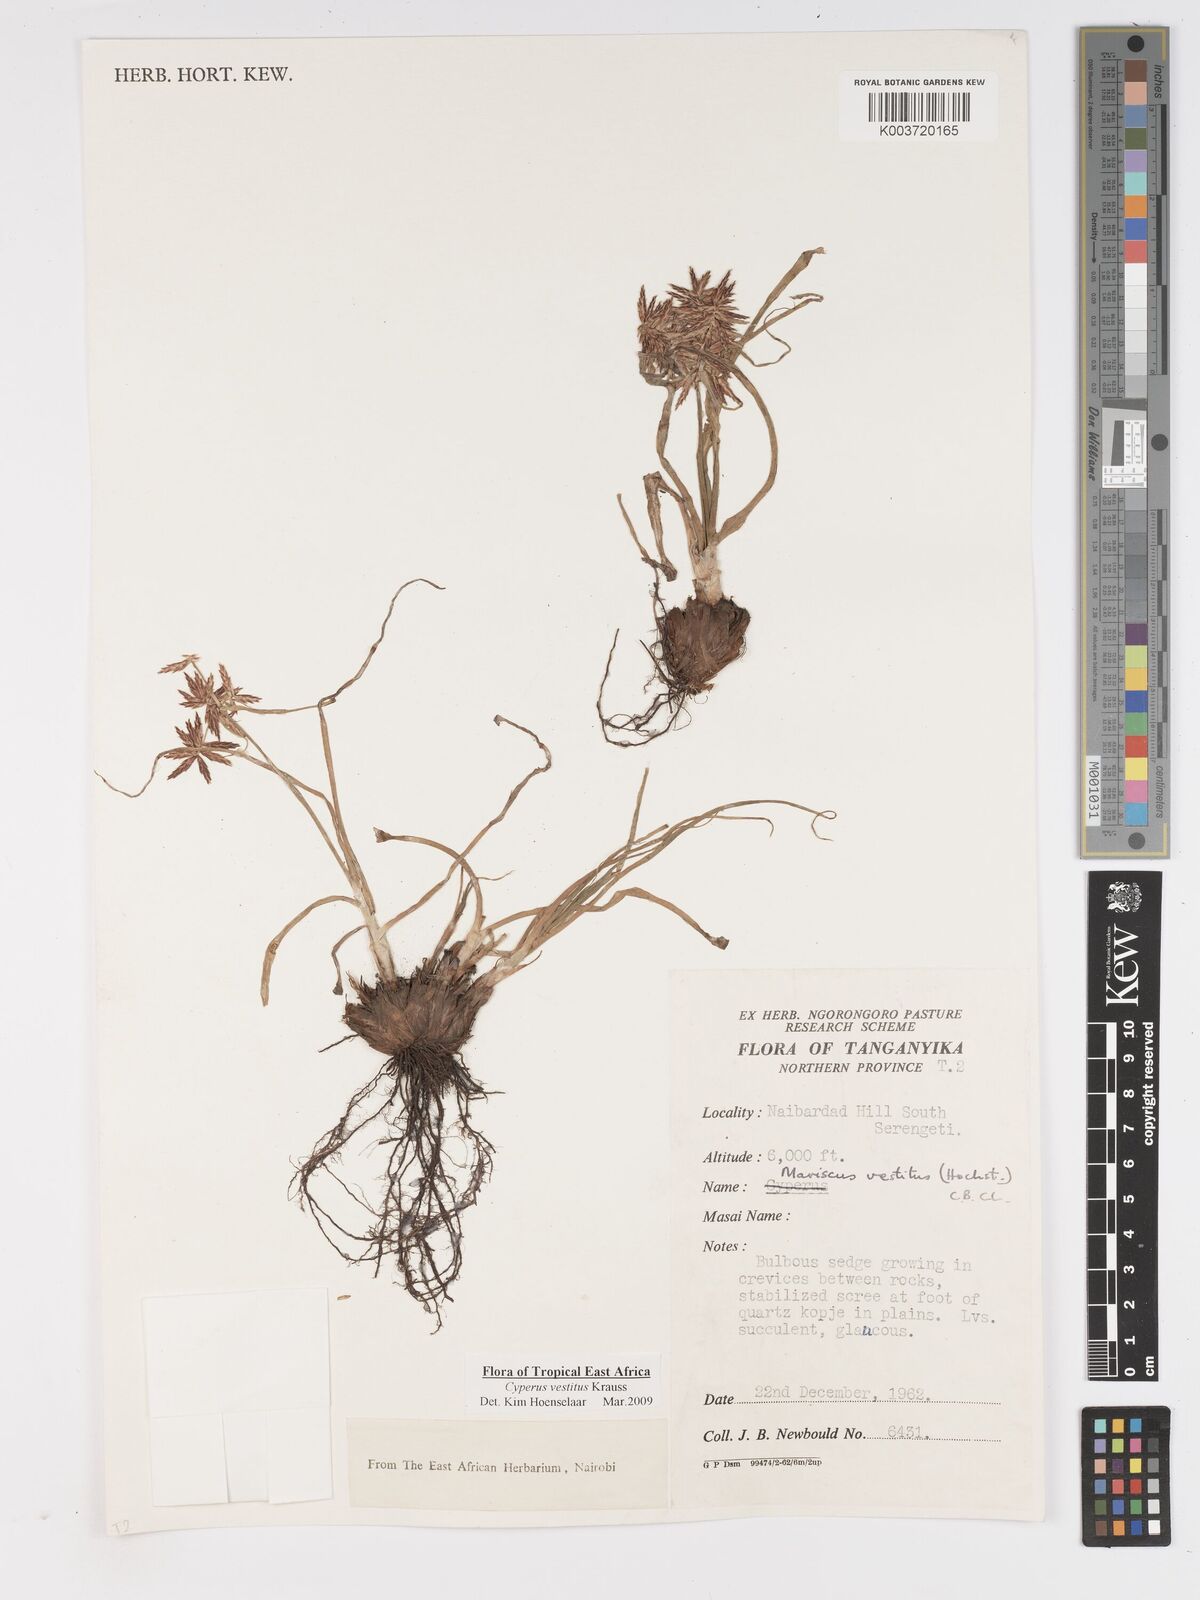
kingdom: Plantae
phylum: Tracheophyta
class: Liliopsida
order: Poales
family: Cyperaceae
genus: Cyperus
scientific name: Cyperus vestitus
